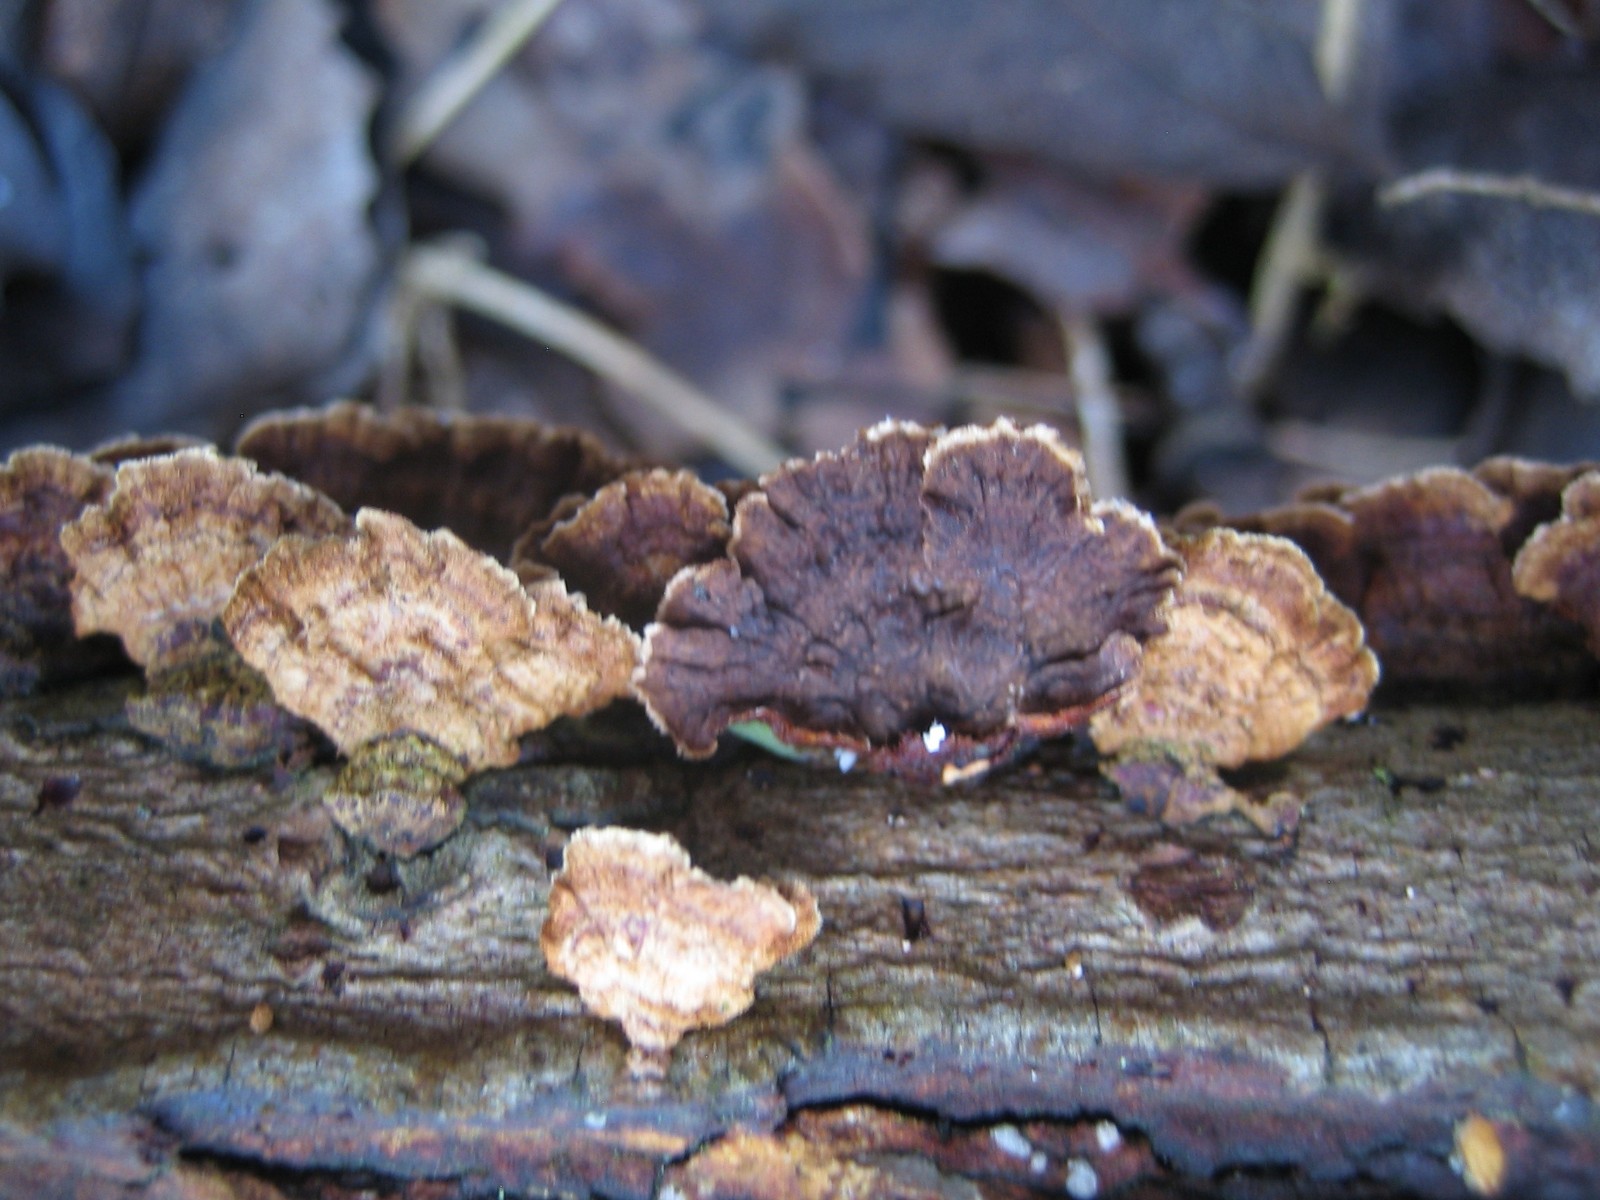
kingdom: Fungi
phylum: Basidiomycota
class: Agaricomycetes
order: Hymenochaetales
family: Hymenochaetaceae
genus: Hydnoporia
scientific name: Hydnoporia tabacina
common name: tobaksbrun ruslædersvamp
